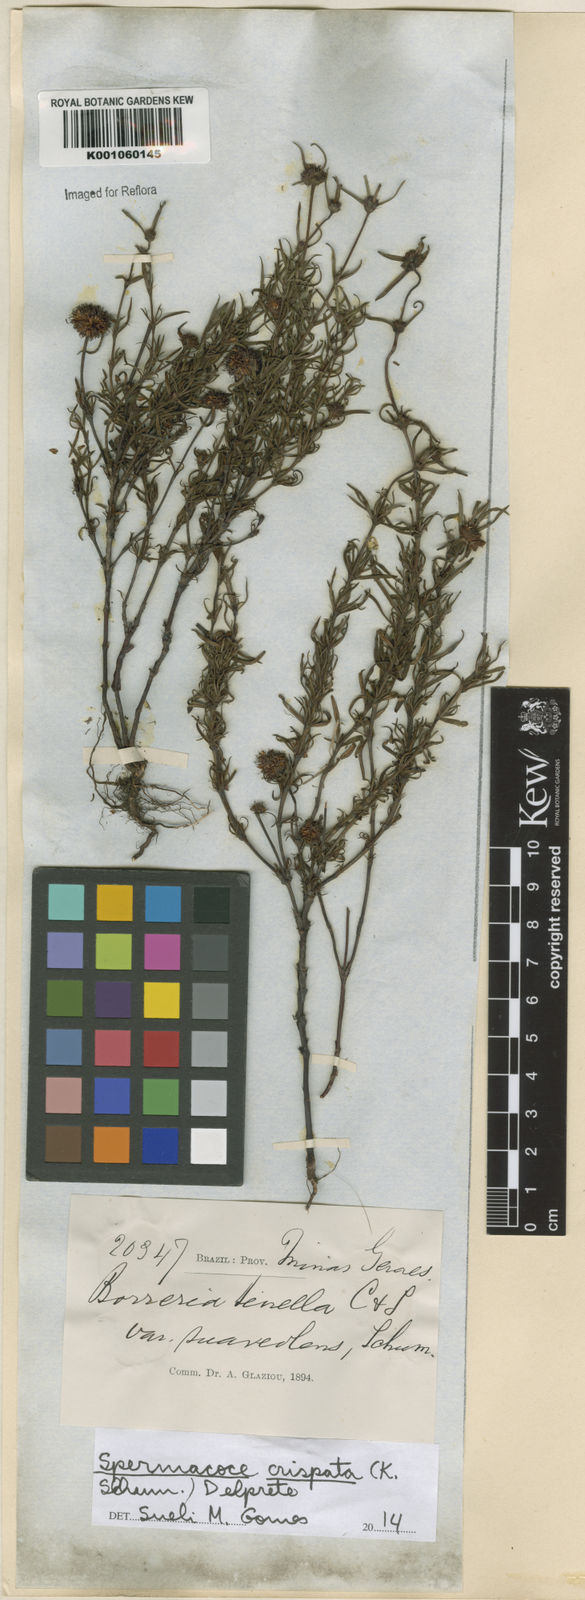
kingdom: Plantae
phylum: Tracheophyta
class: Magnoliopsida
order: Gentianales
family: Rubiaceae
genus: Spermacoce
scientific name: Spermacoce crispata
